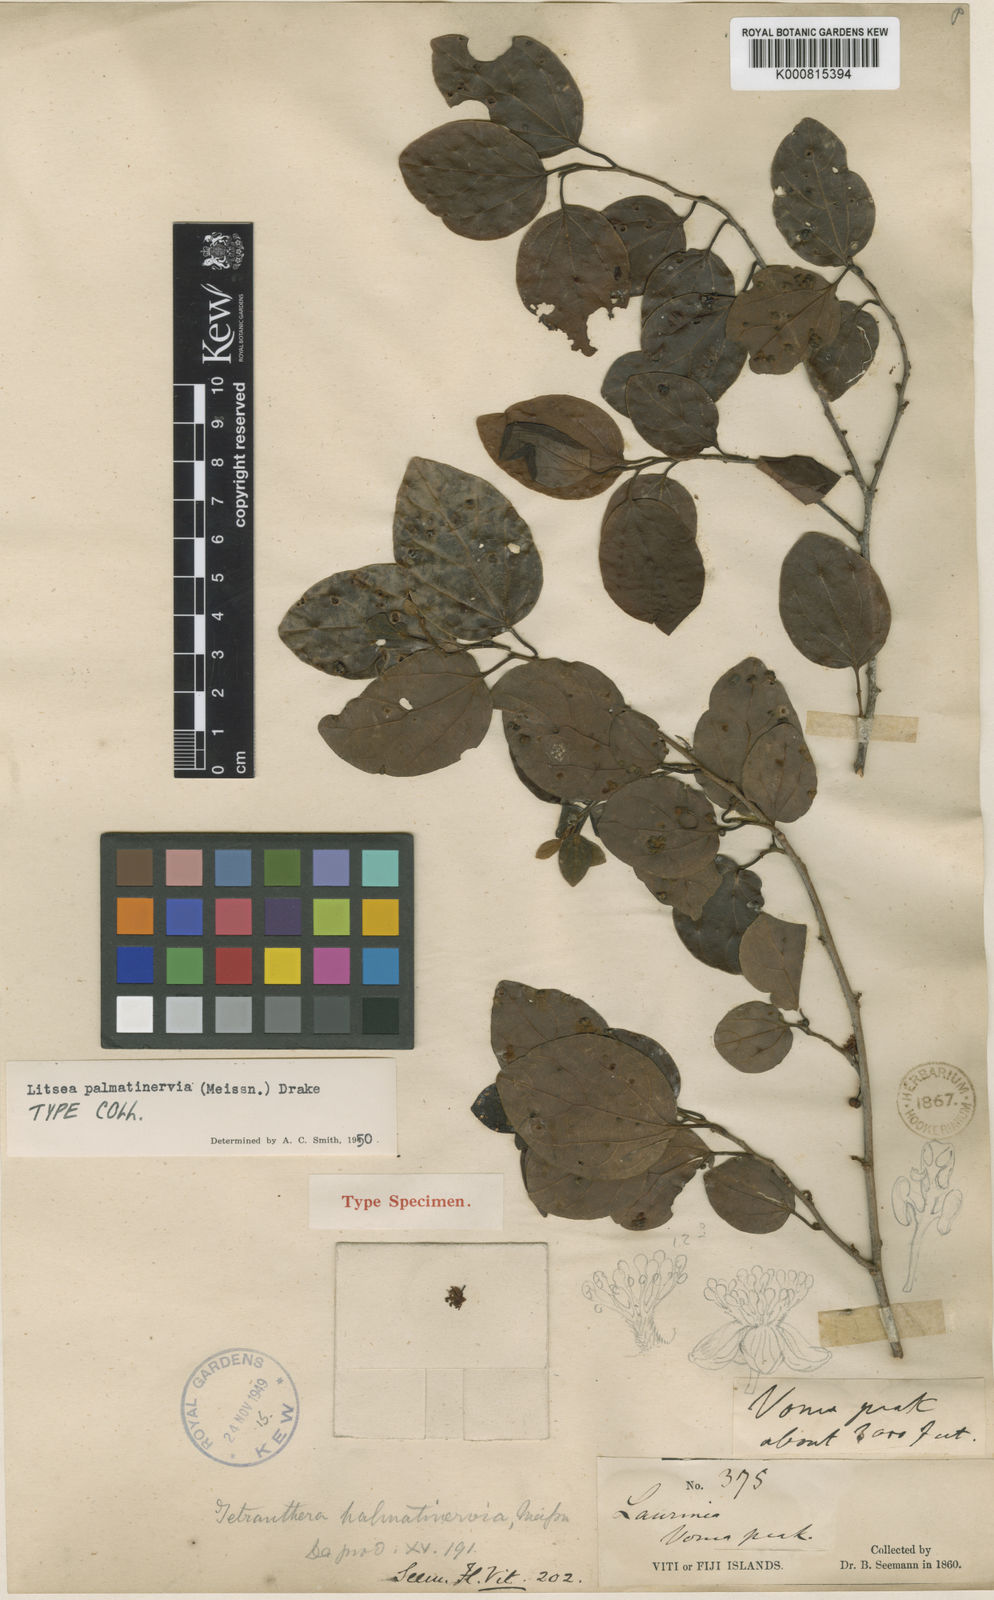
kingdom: Plantae
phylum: Tracheophyta
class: Magnoliopsida
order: Laurales
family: Lauraceae
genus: Litsea
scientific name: Litsea palmatinervia
